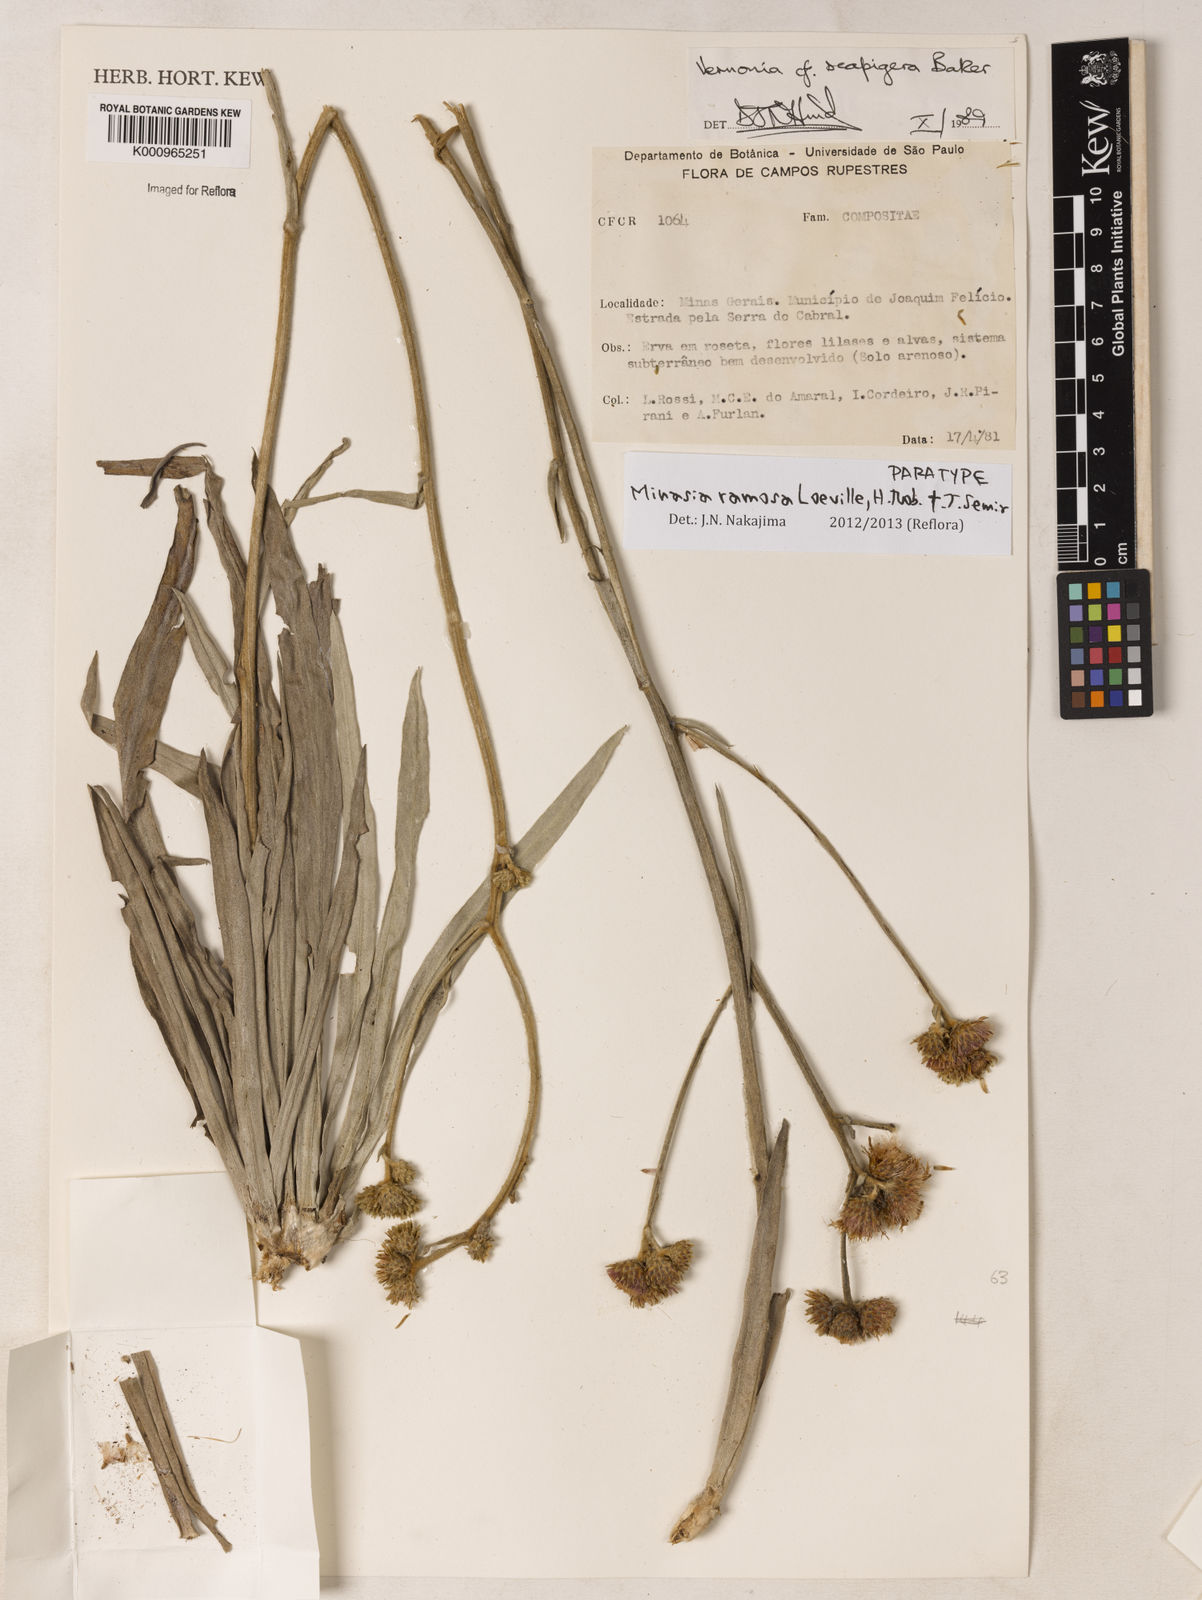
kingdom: Plantae
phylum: Tracheophyta
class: Magnoliopsida
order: Asterales
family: Asteraceae
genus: Minasia
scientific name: Minasia ramosa
